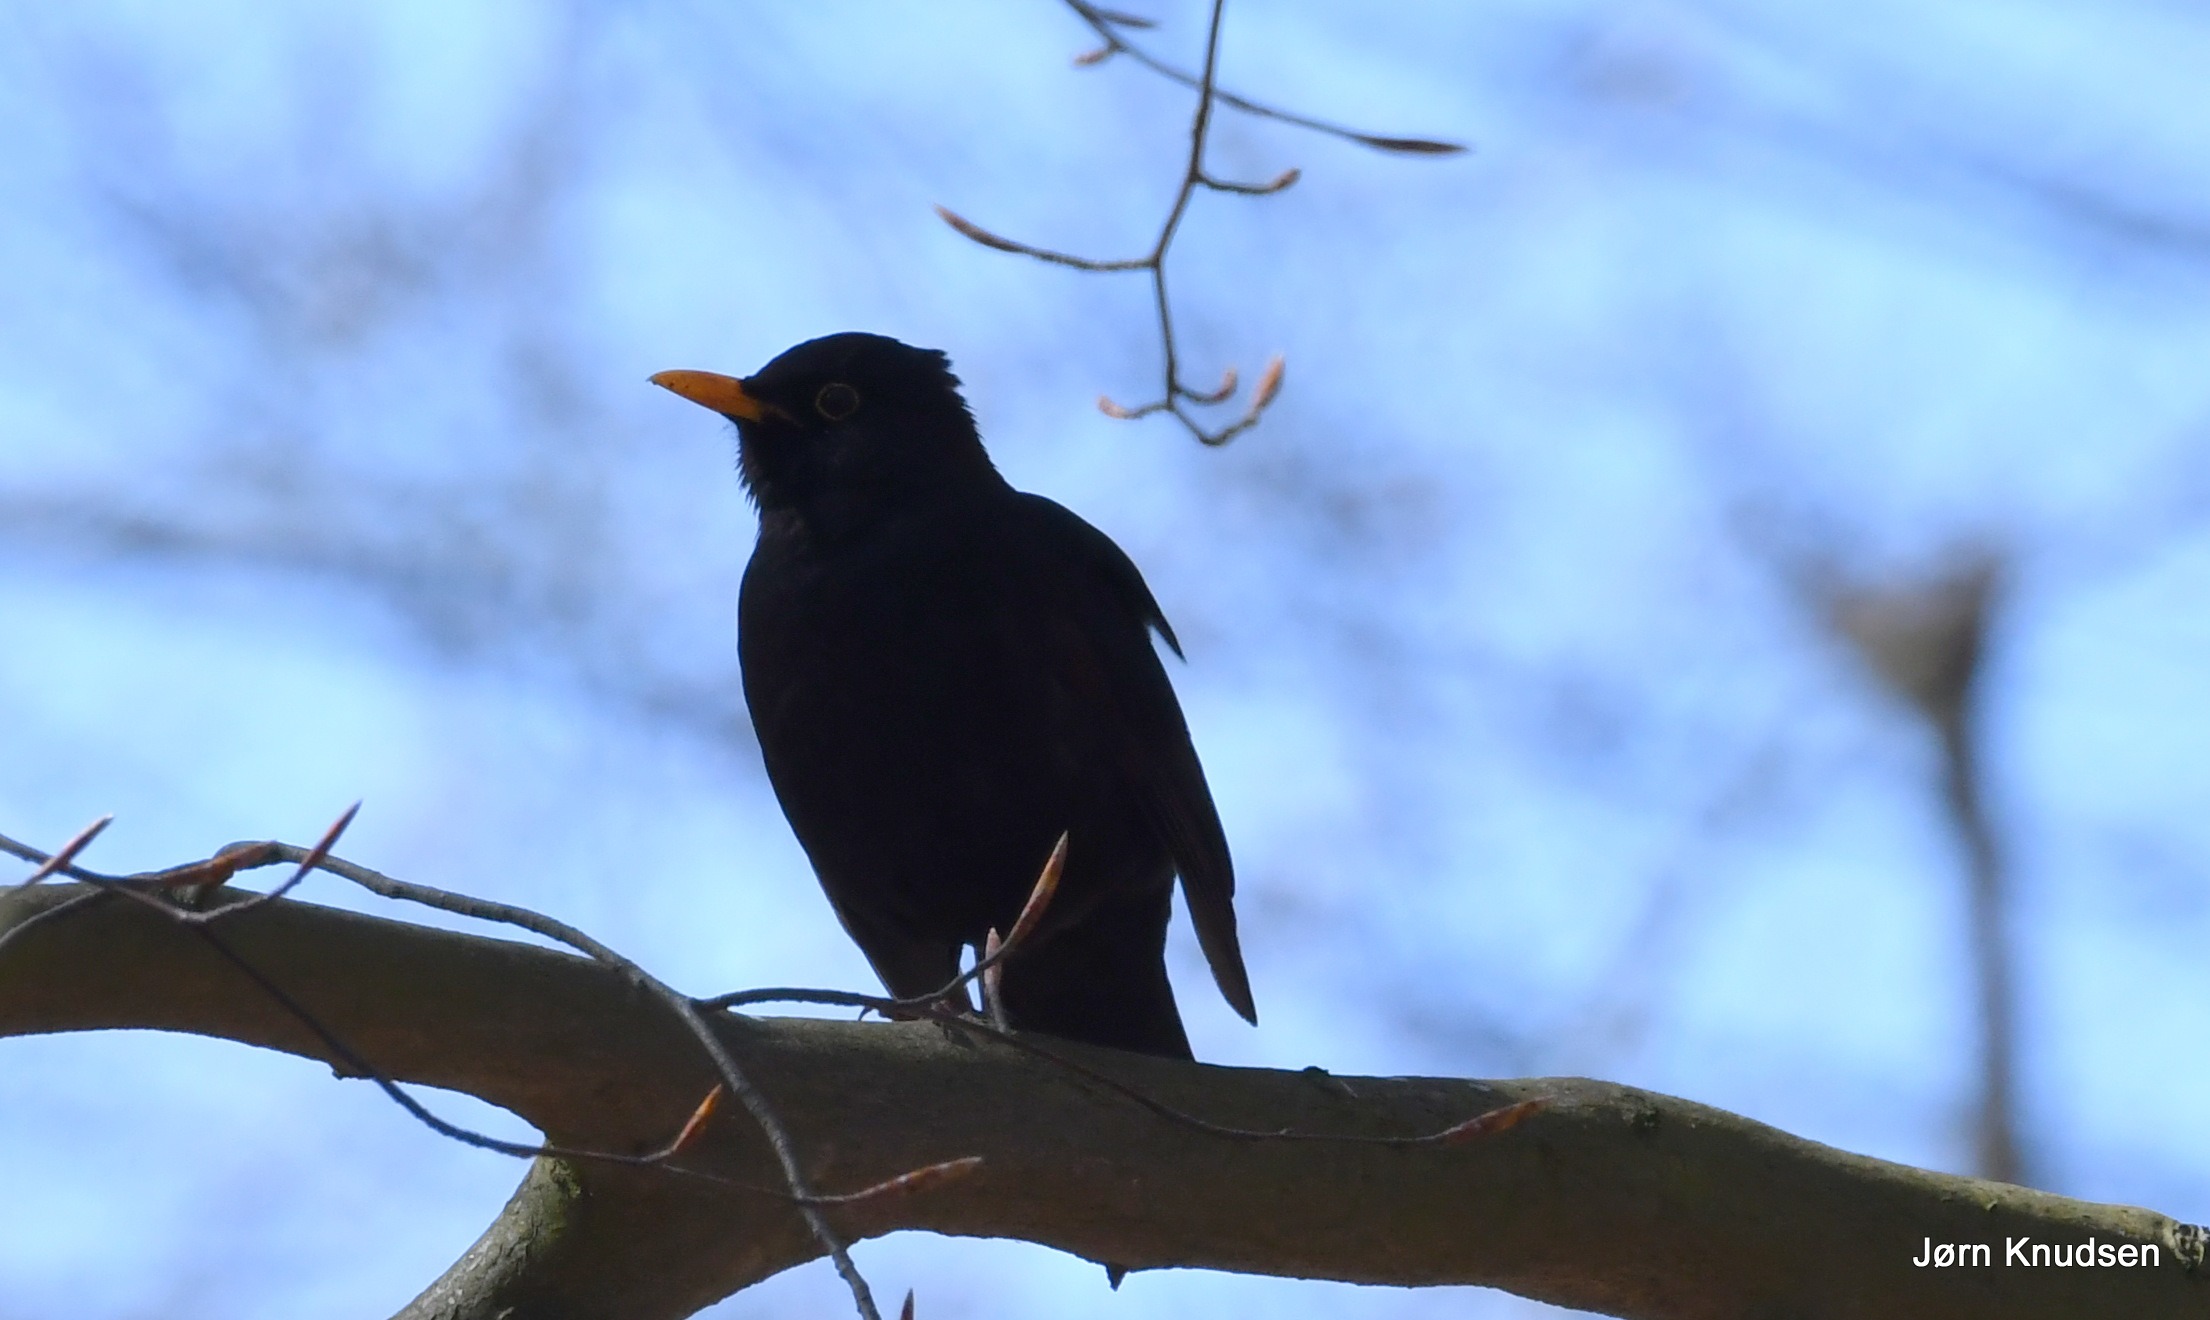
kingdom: Animalia
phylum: Chordata
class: Aves
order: Passeriformes
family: Turdidae
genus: Turdus
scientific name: Turdus merula
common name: Solsort
